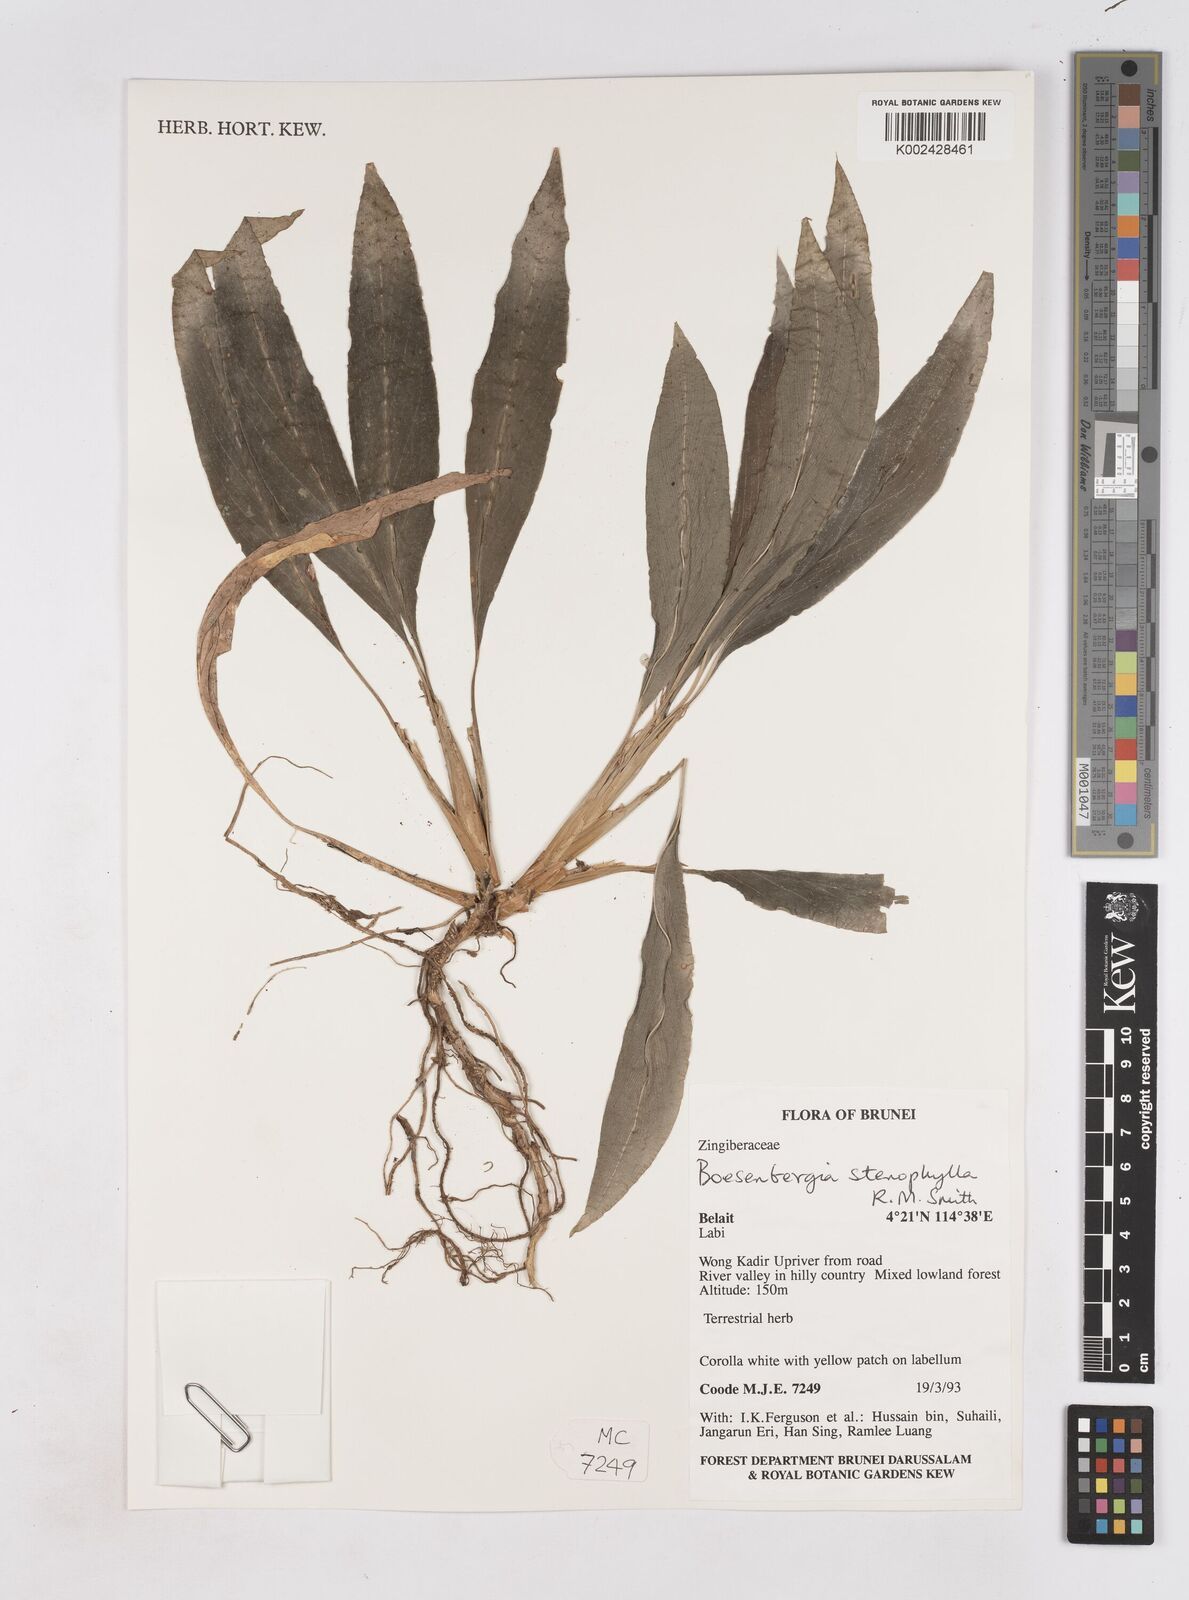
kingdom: Plantae
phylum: Tracheophyta
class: Liliopsida
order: Zingiberales
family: Zingiberaceae
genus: Boesenbergia
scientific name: Boesenbergia stenophylla
